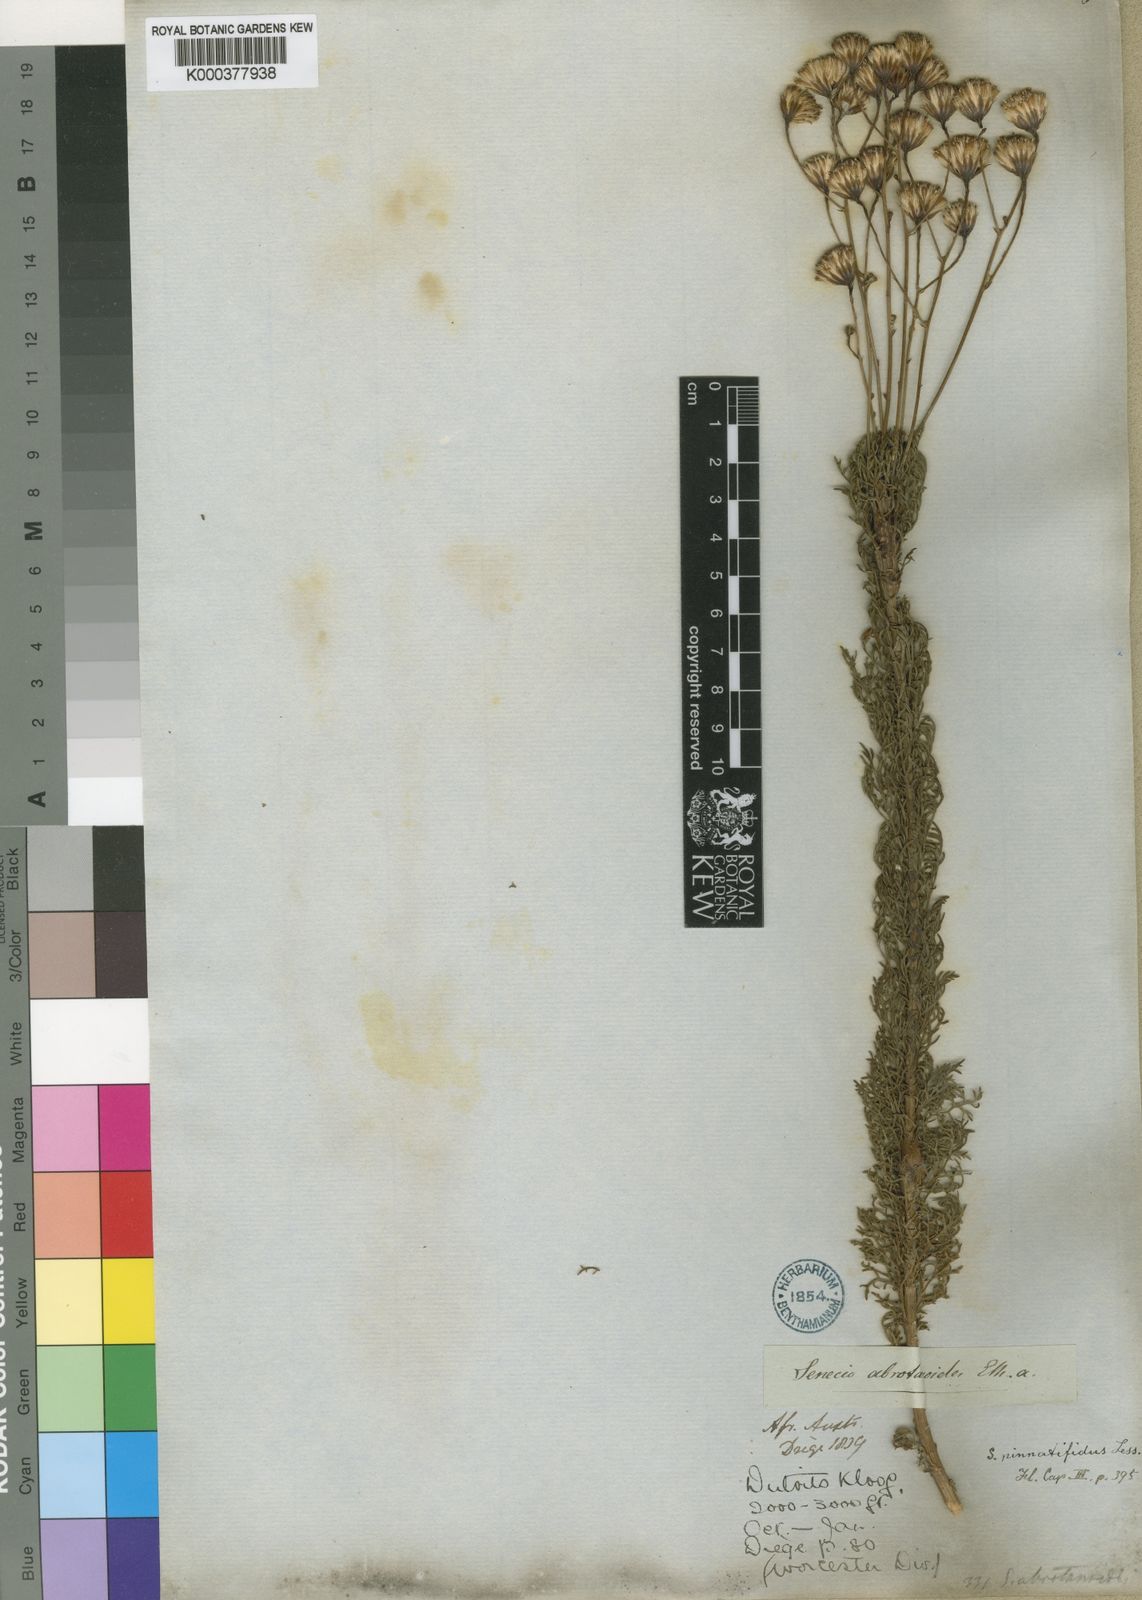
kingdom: Plantae
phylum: Tracheophyta
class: Magnoliopsida
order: Asterales
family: Asteraceae
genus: Senecio
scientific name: Senecio pinnatifidus
